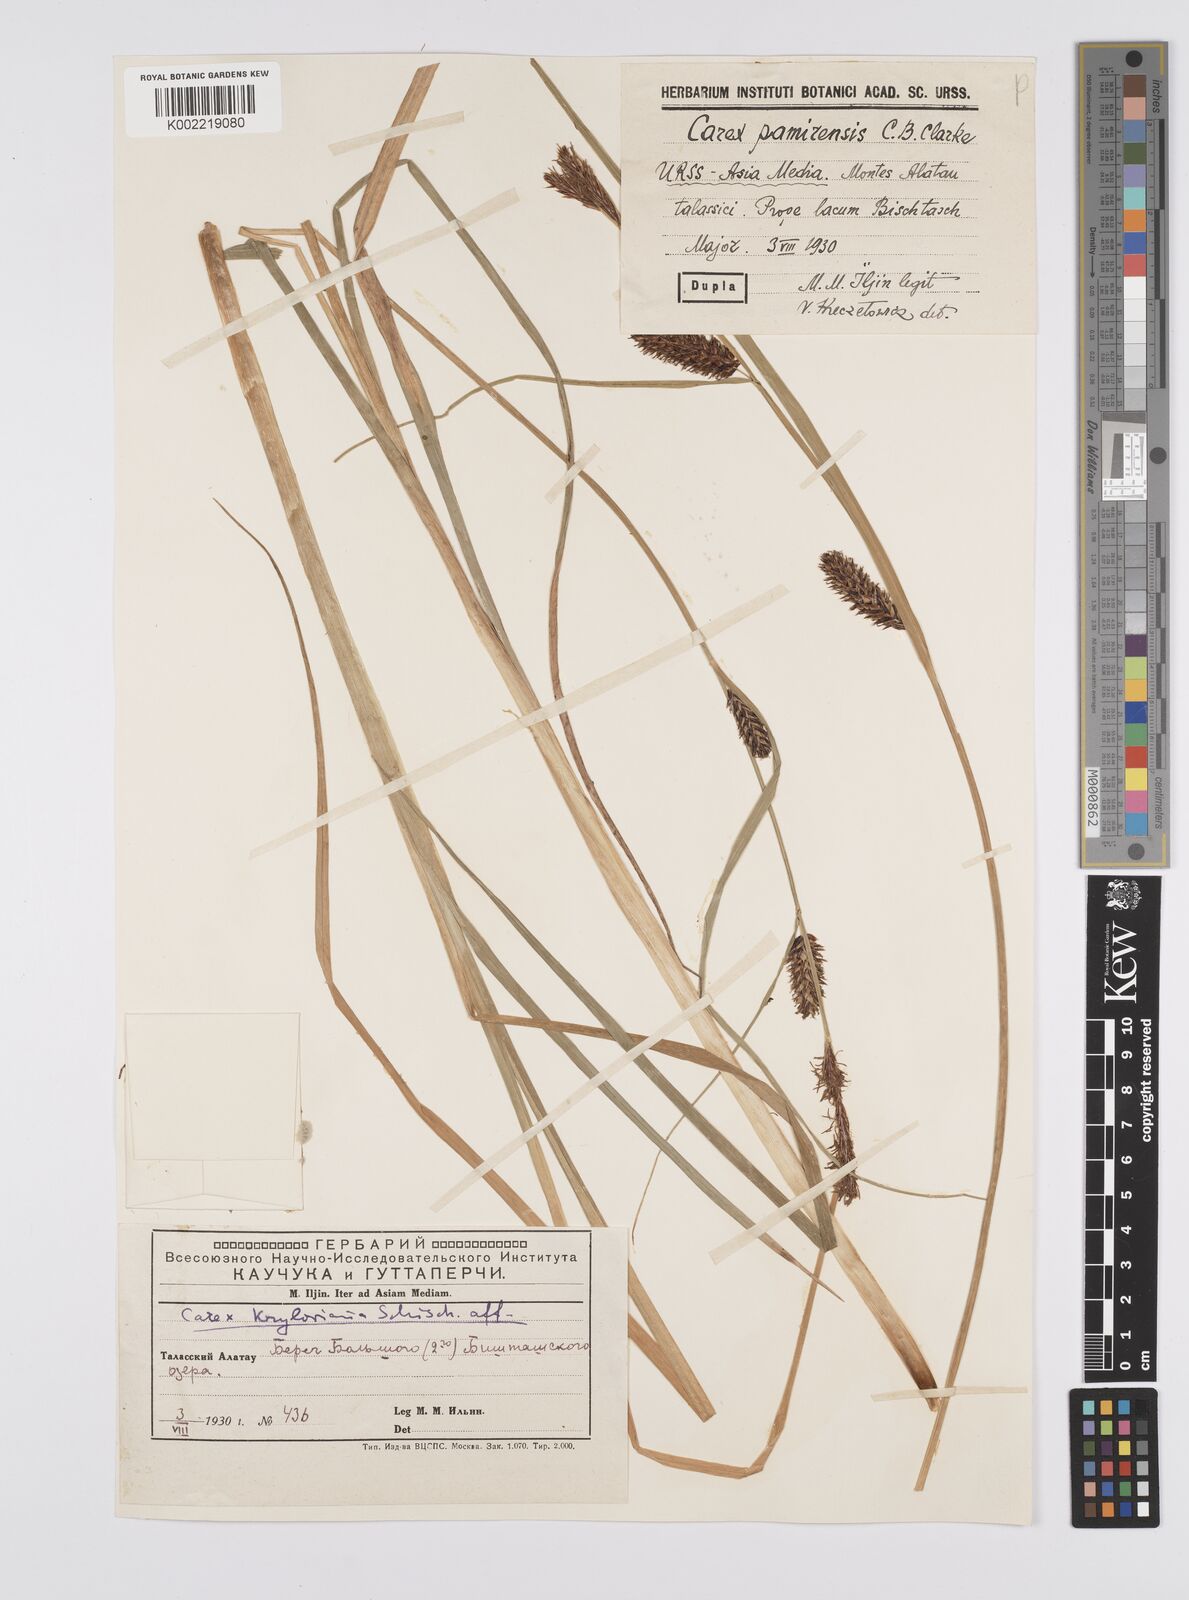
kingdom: Plantae
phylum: Tracheophyta
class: Liliopsida
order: Poales
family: Cyperaceae
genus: Carex
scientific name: Carex pamirensis
